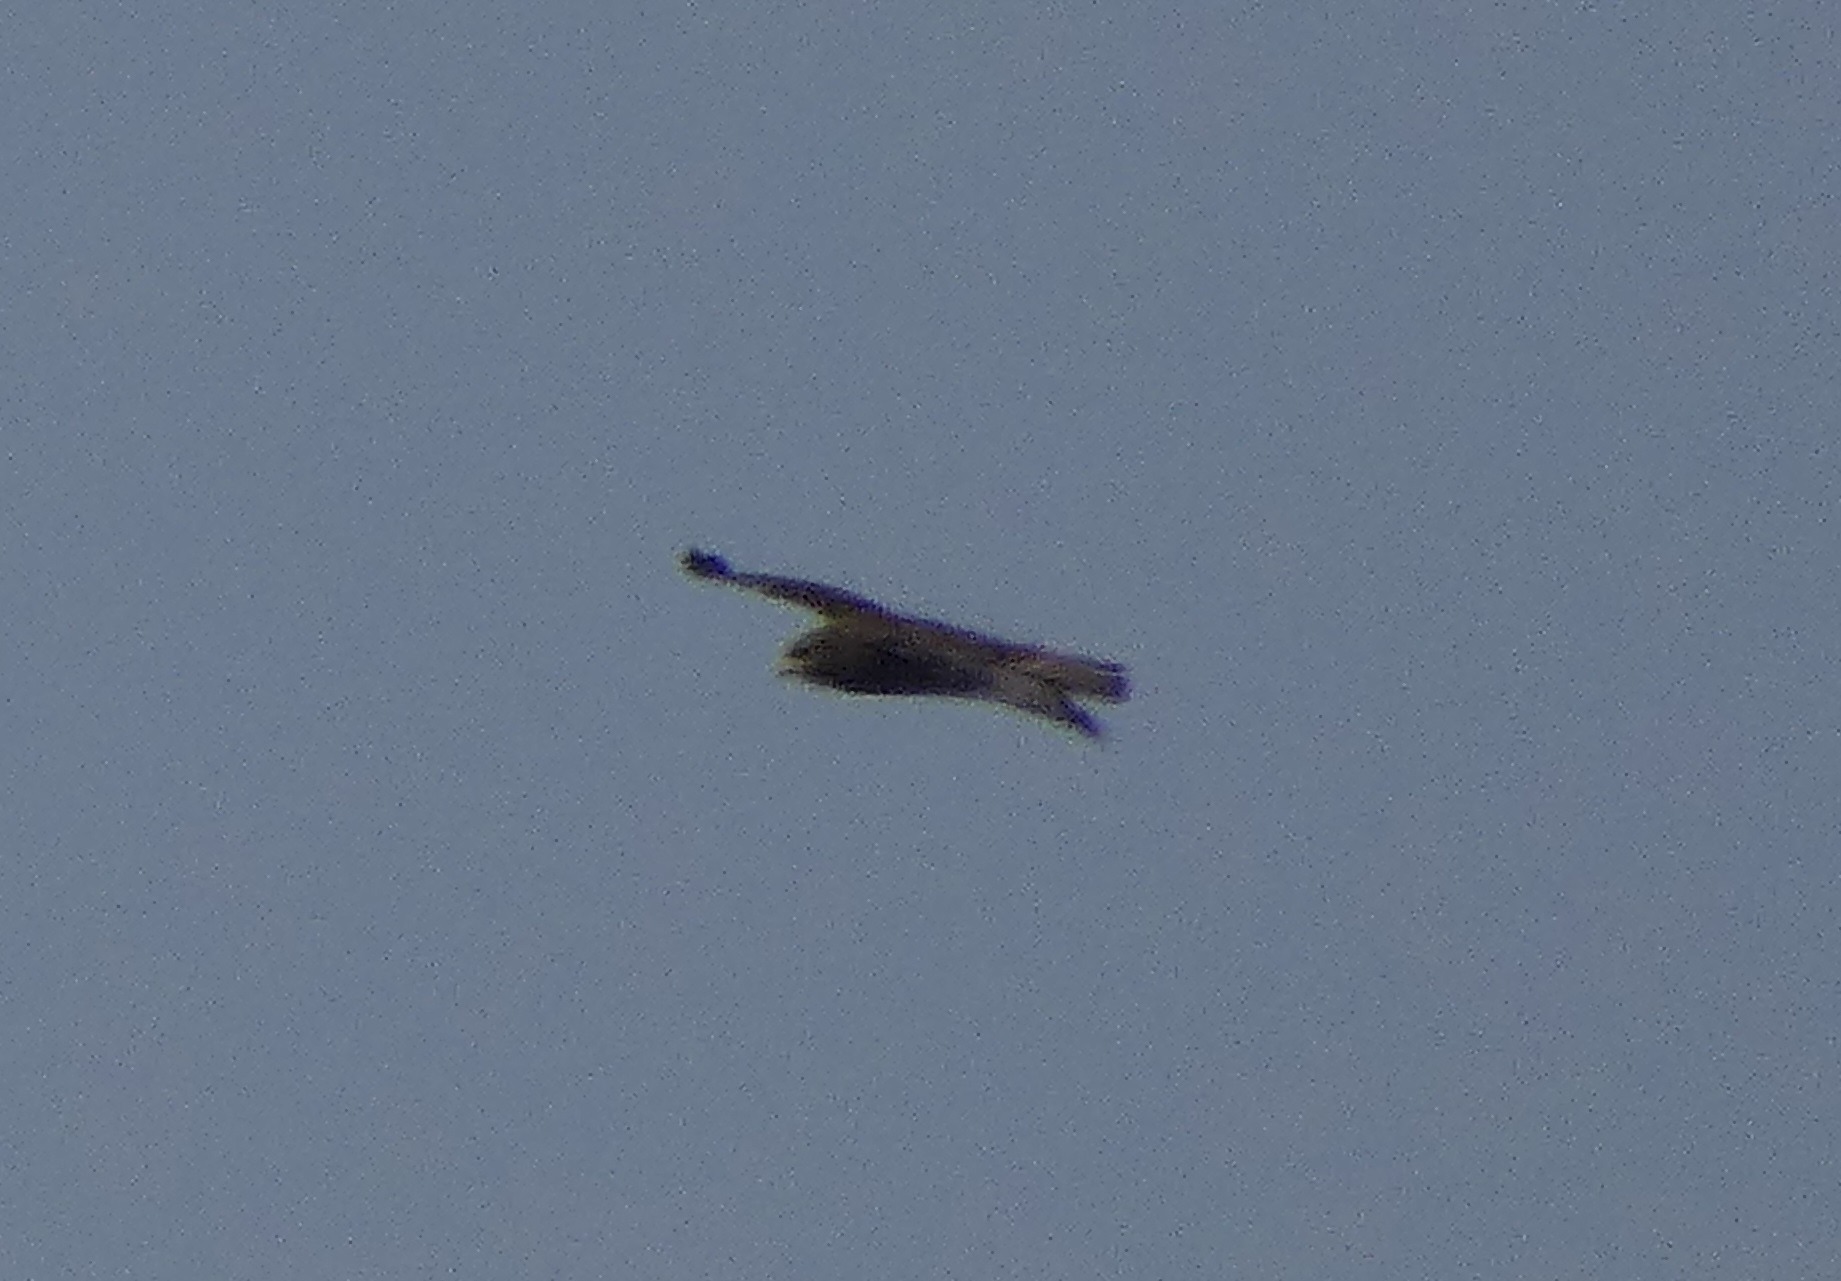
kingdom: Animalia
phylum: Chordata
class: Aves
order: Accipitriformes
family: Accipitridae
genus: Buteo
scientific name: Buteo buteo
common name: Musvåge
